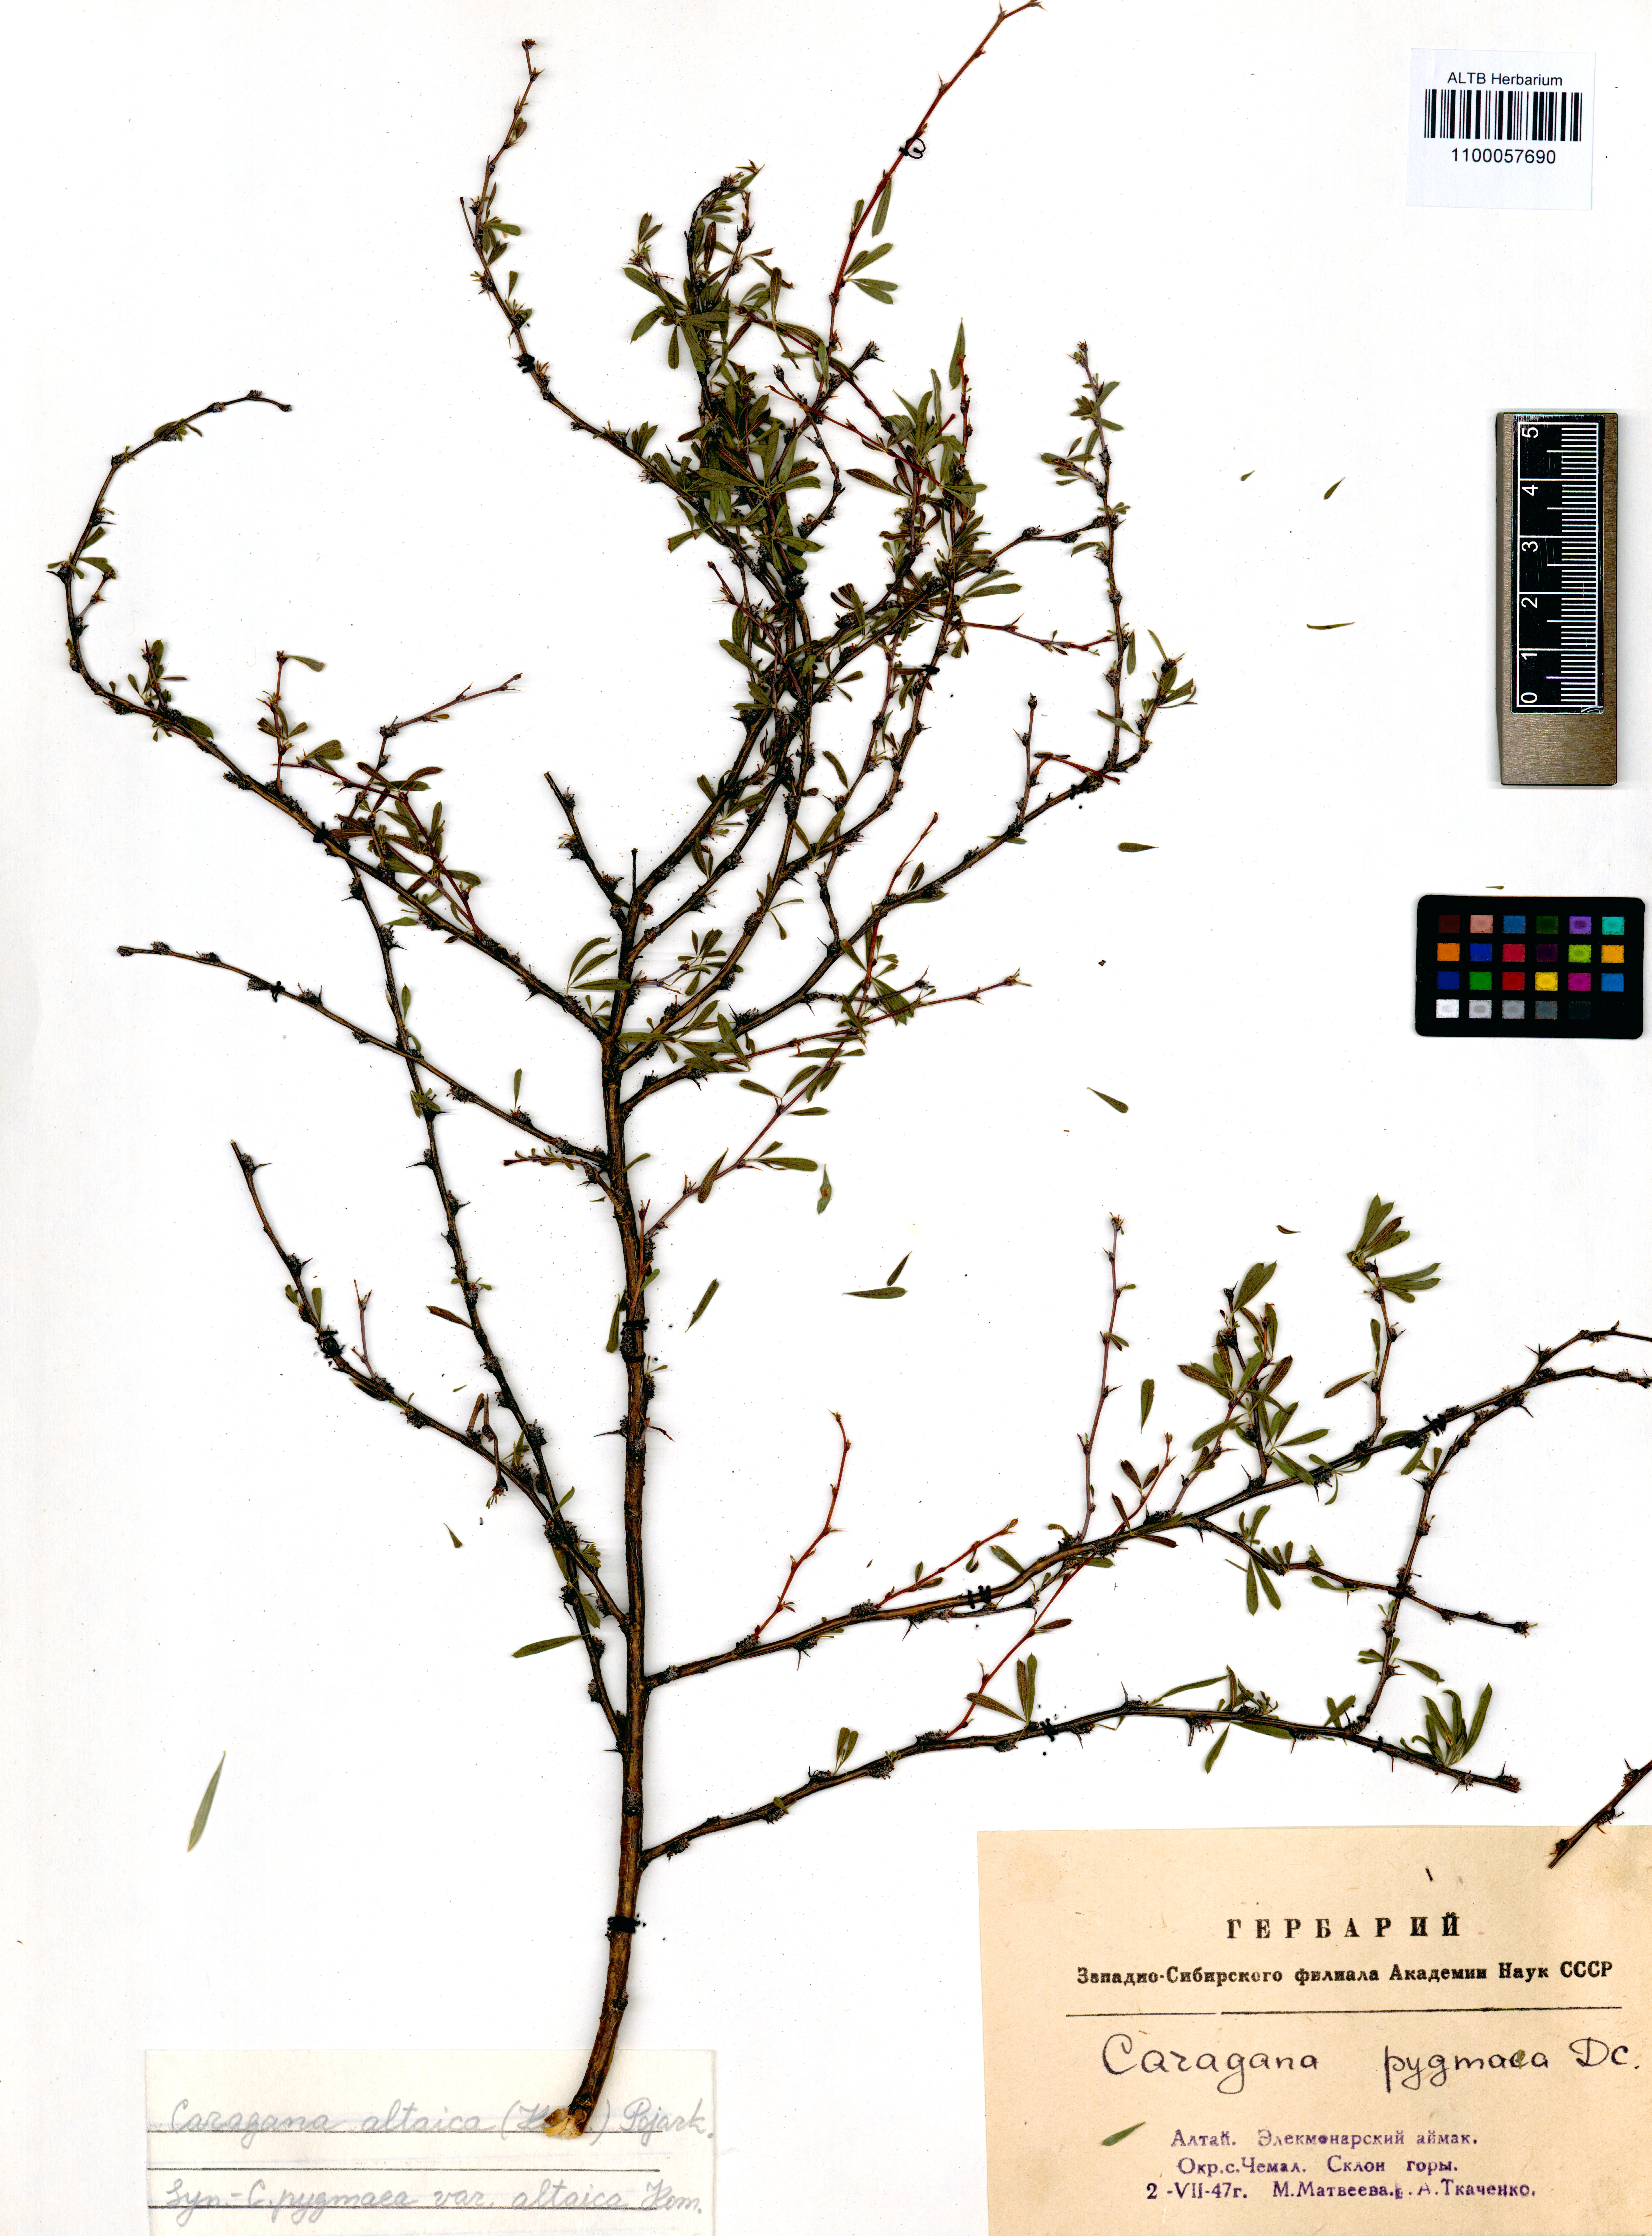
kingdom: Plantae
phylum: Tracheophyta
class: Magnoliopsida
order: Fabales
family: Fabaceae
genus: Caragana
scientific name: Caragana pygmaea
